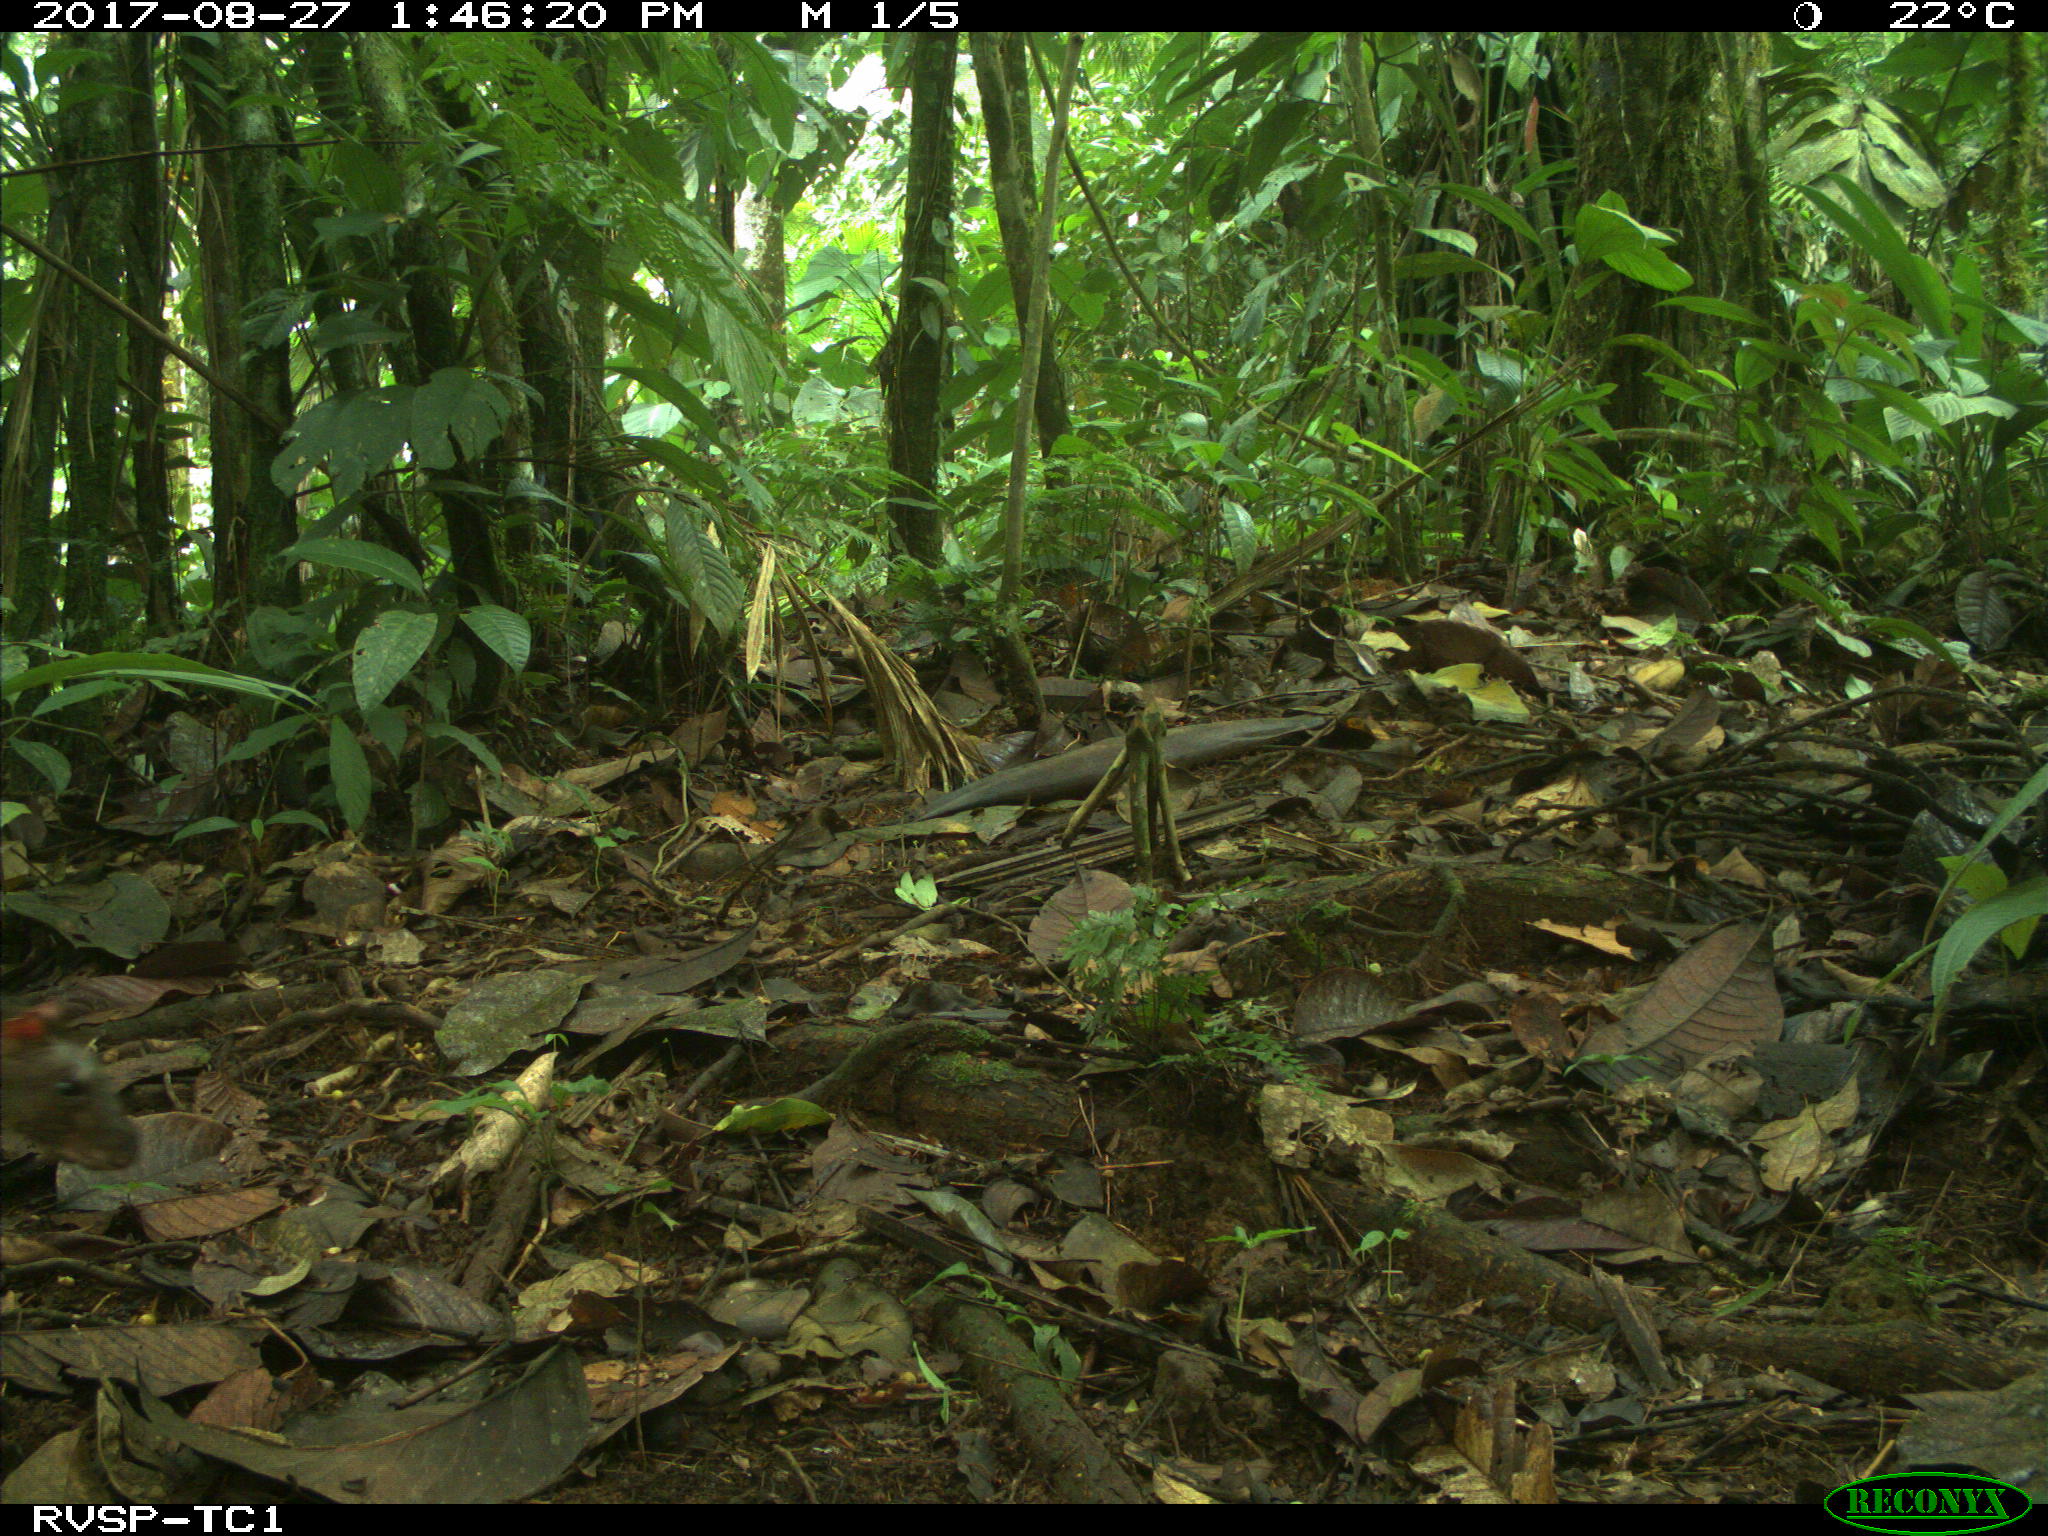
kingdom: Animalia
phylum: Chordata
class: Mammalia
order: Rodentia
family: Dasyproctidae
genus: Dasyprocta
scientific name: Dasyprocta punctata
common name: Central american agouti
